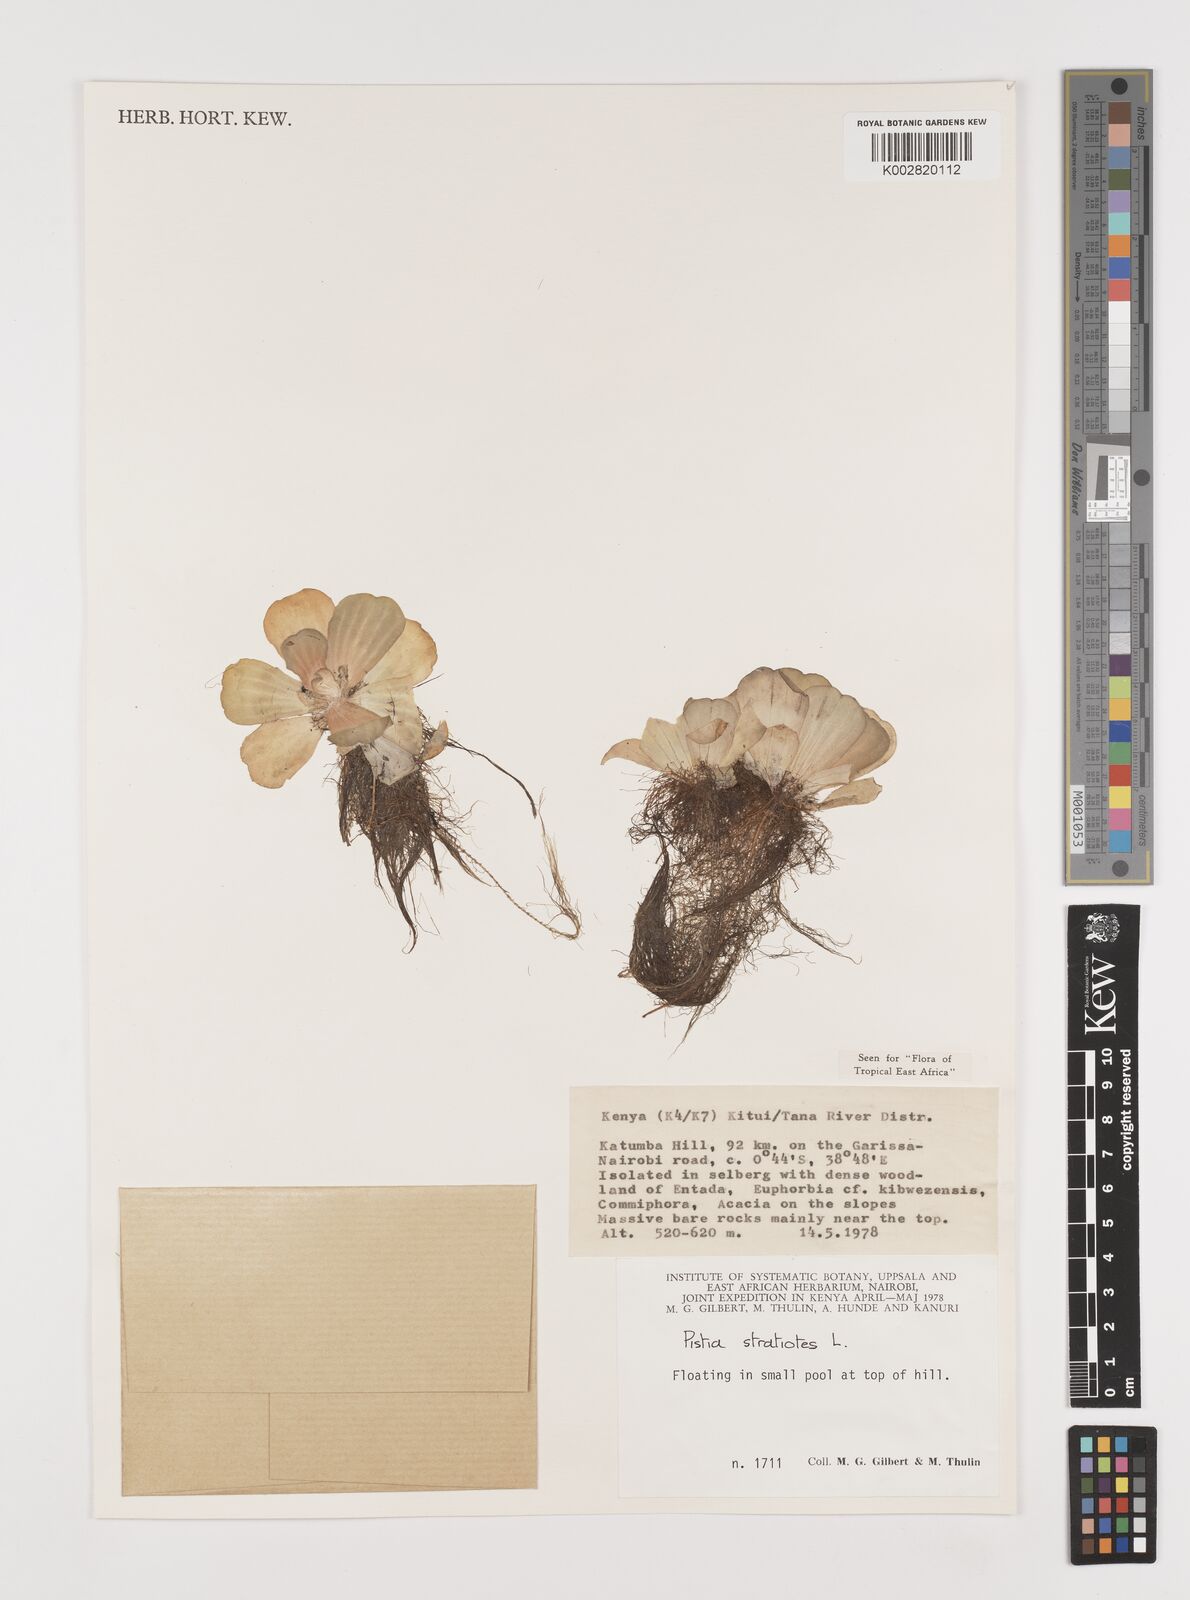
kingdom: Plantae
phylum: Tracheophyta
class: Liliopsida
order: Alismatales
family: Araceae
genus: Pistia
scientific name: Pistia stratiotes
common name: Water lettuce
